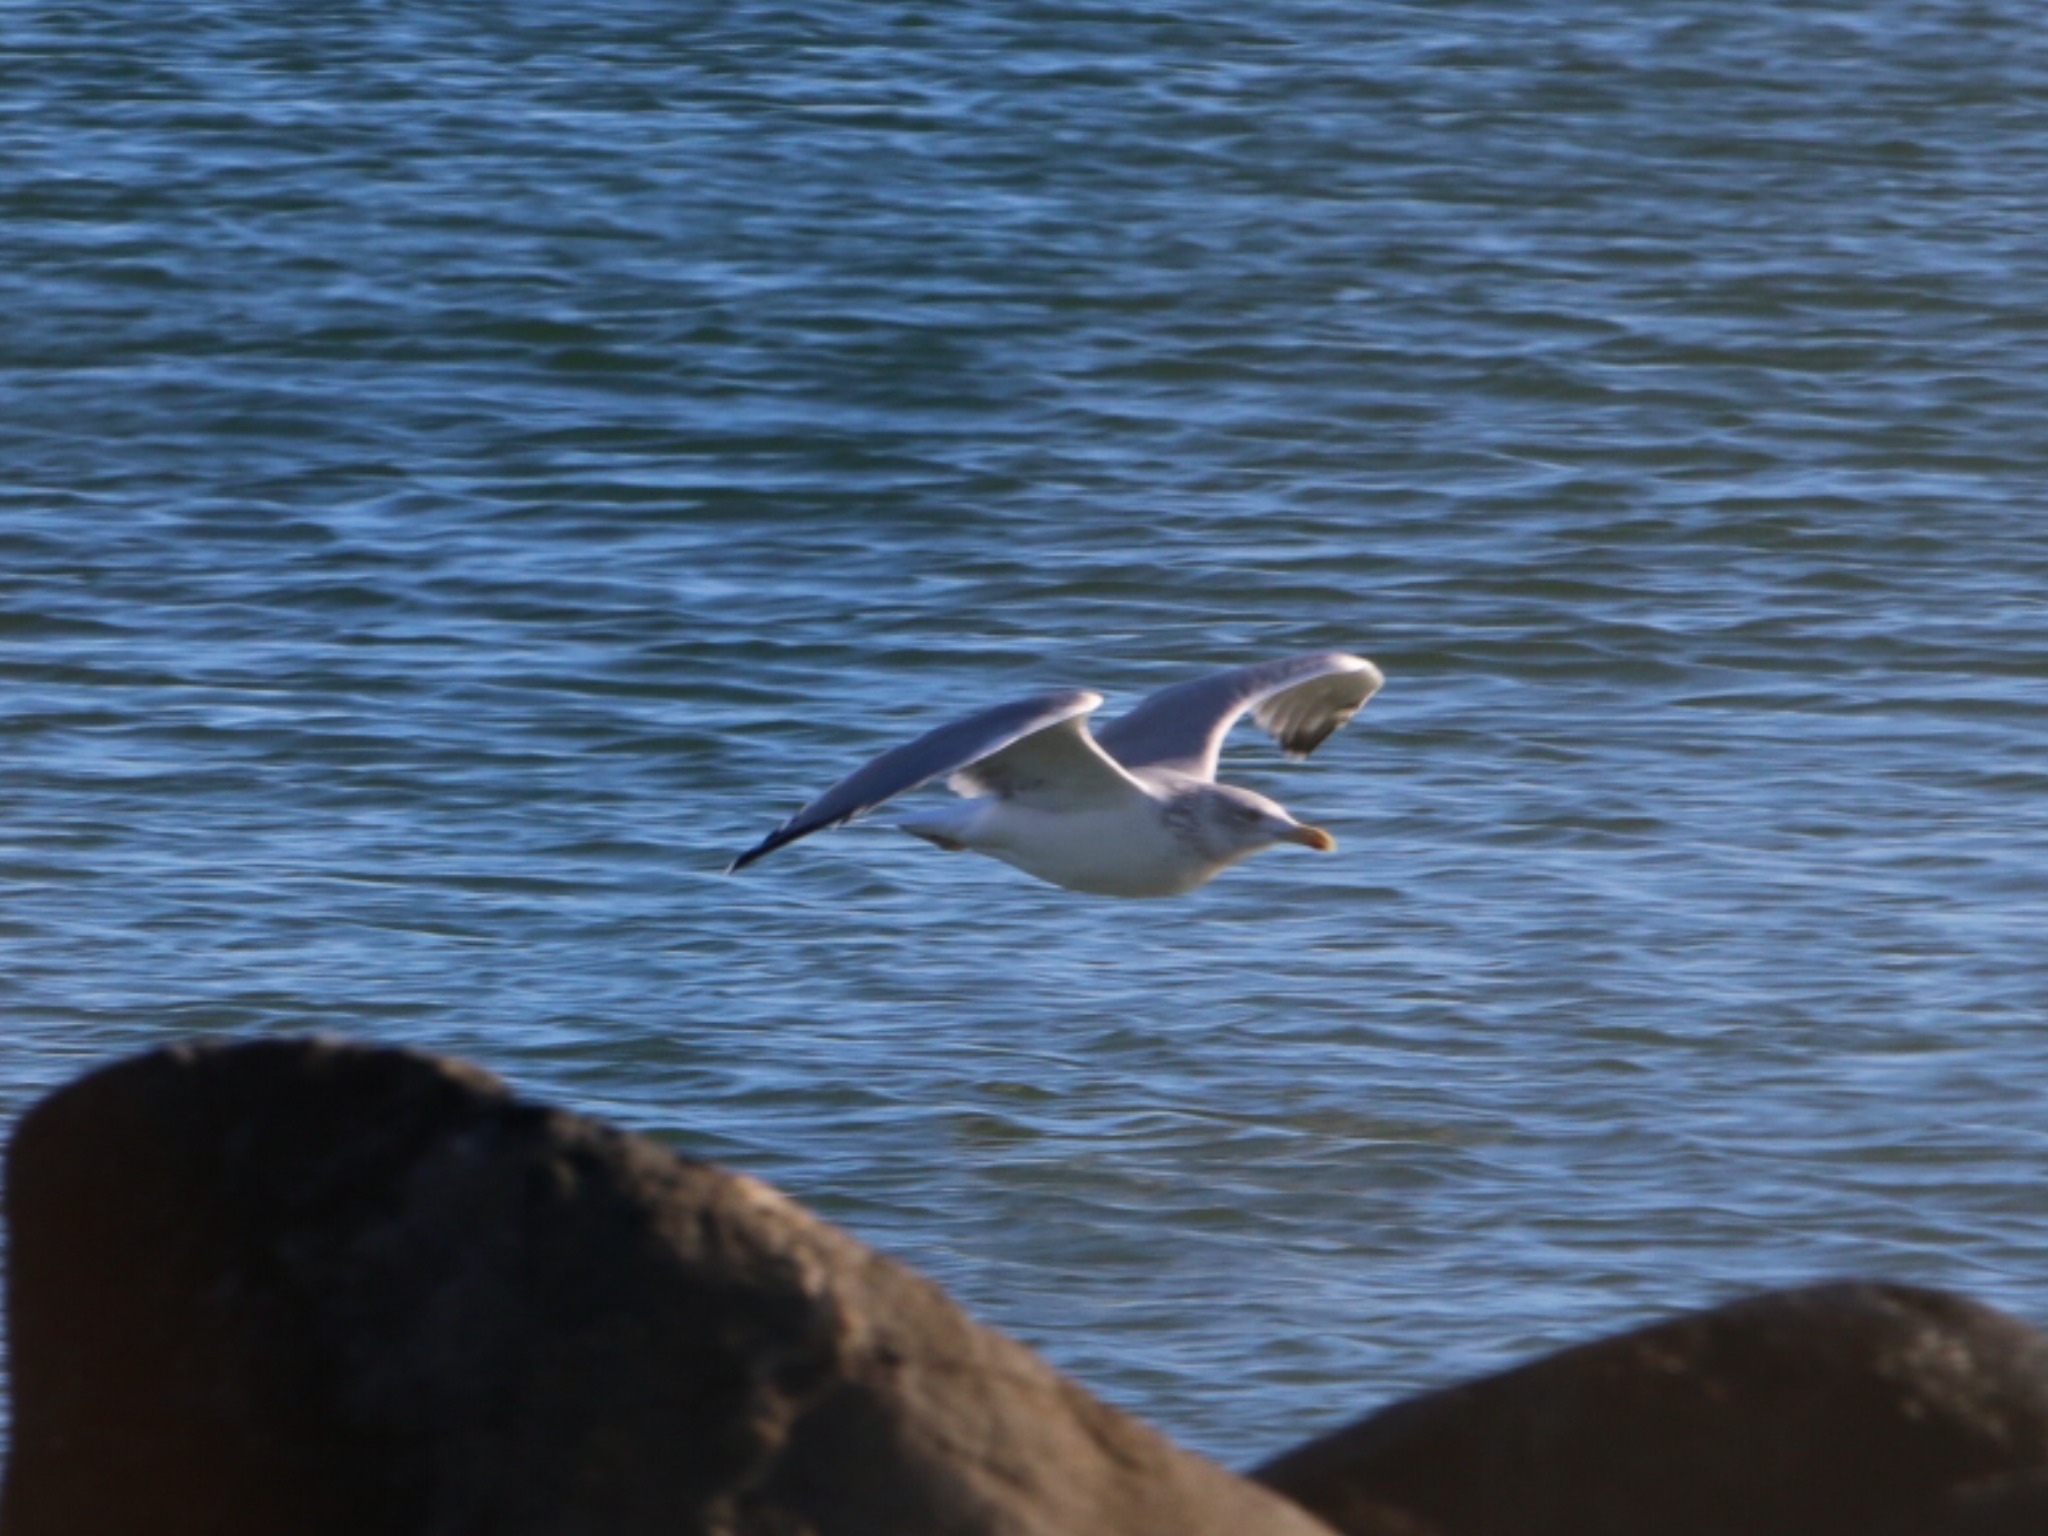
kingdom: Animalia
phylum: Chordata
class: Aves
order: Charadriiformes
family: Laridae
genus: Larus
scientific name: Larus argentatus
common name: Sølvmåge
